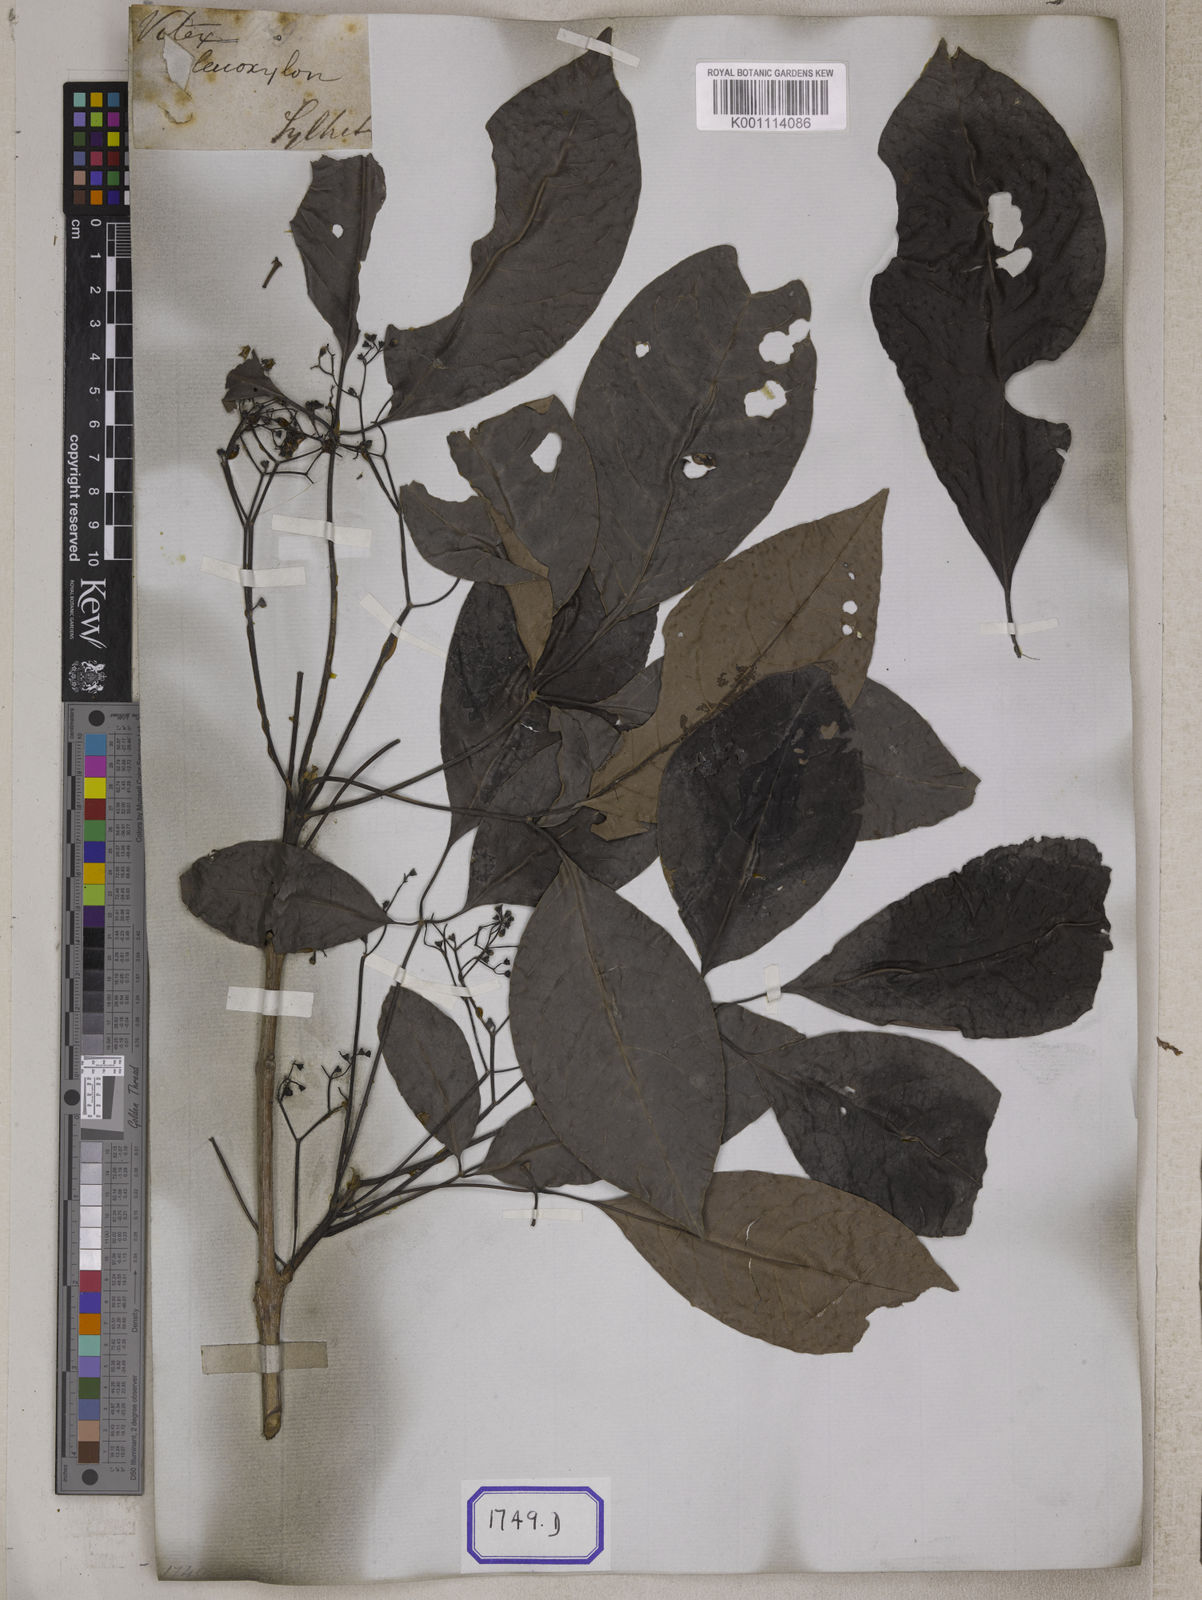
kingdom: Plantae
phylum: Tracheophyta
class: Magnoliopsida
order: Lamiales
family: Lamiaceae
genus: Vitex
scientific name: Vitex
